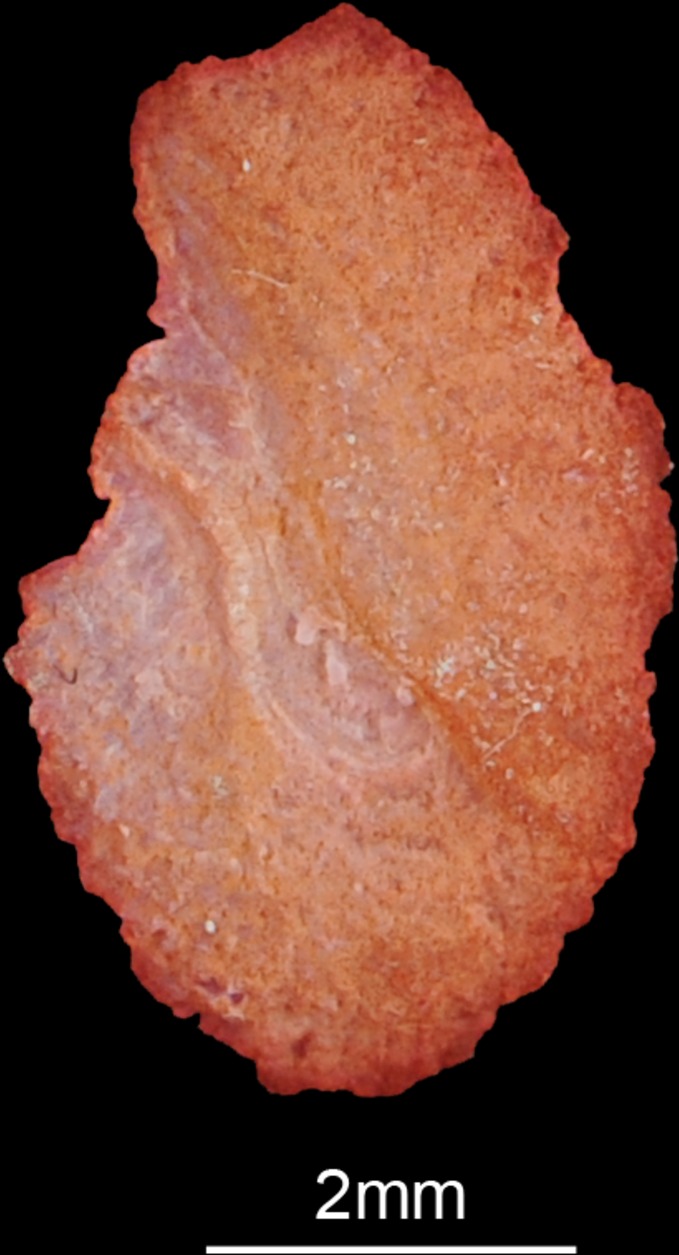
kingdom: Animalia
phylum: Chordata
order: Perciformes
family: Cichlidae
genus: Sargochromis
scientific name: Sargochromis carlottae
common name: Rainbow happy
